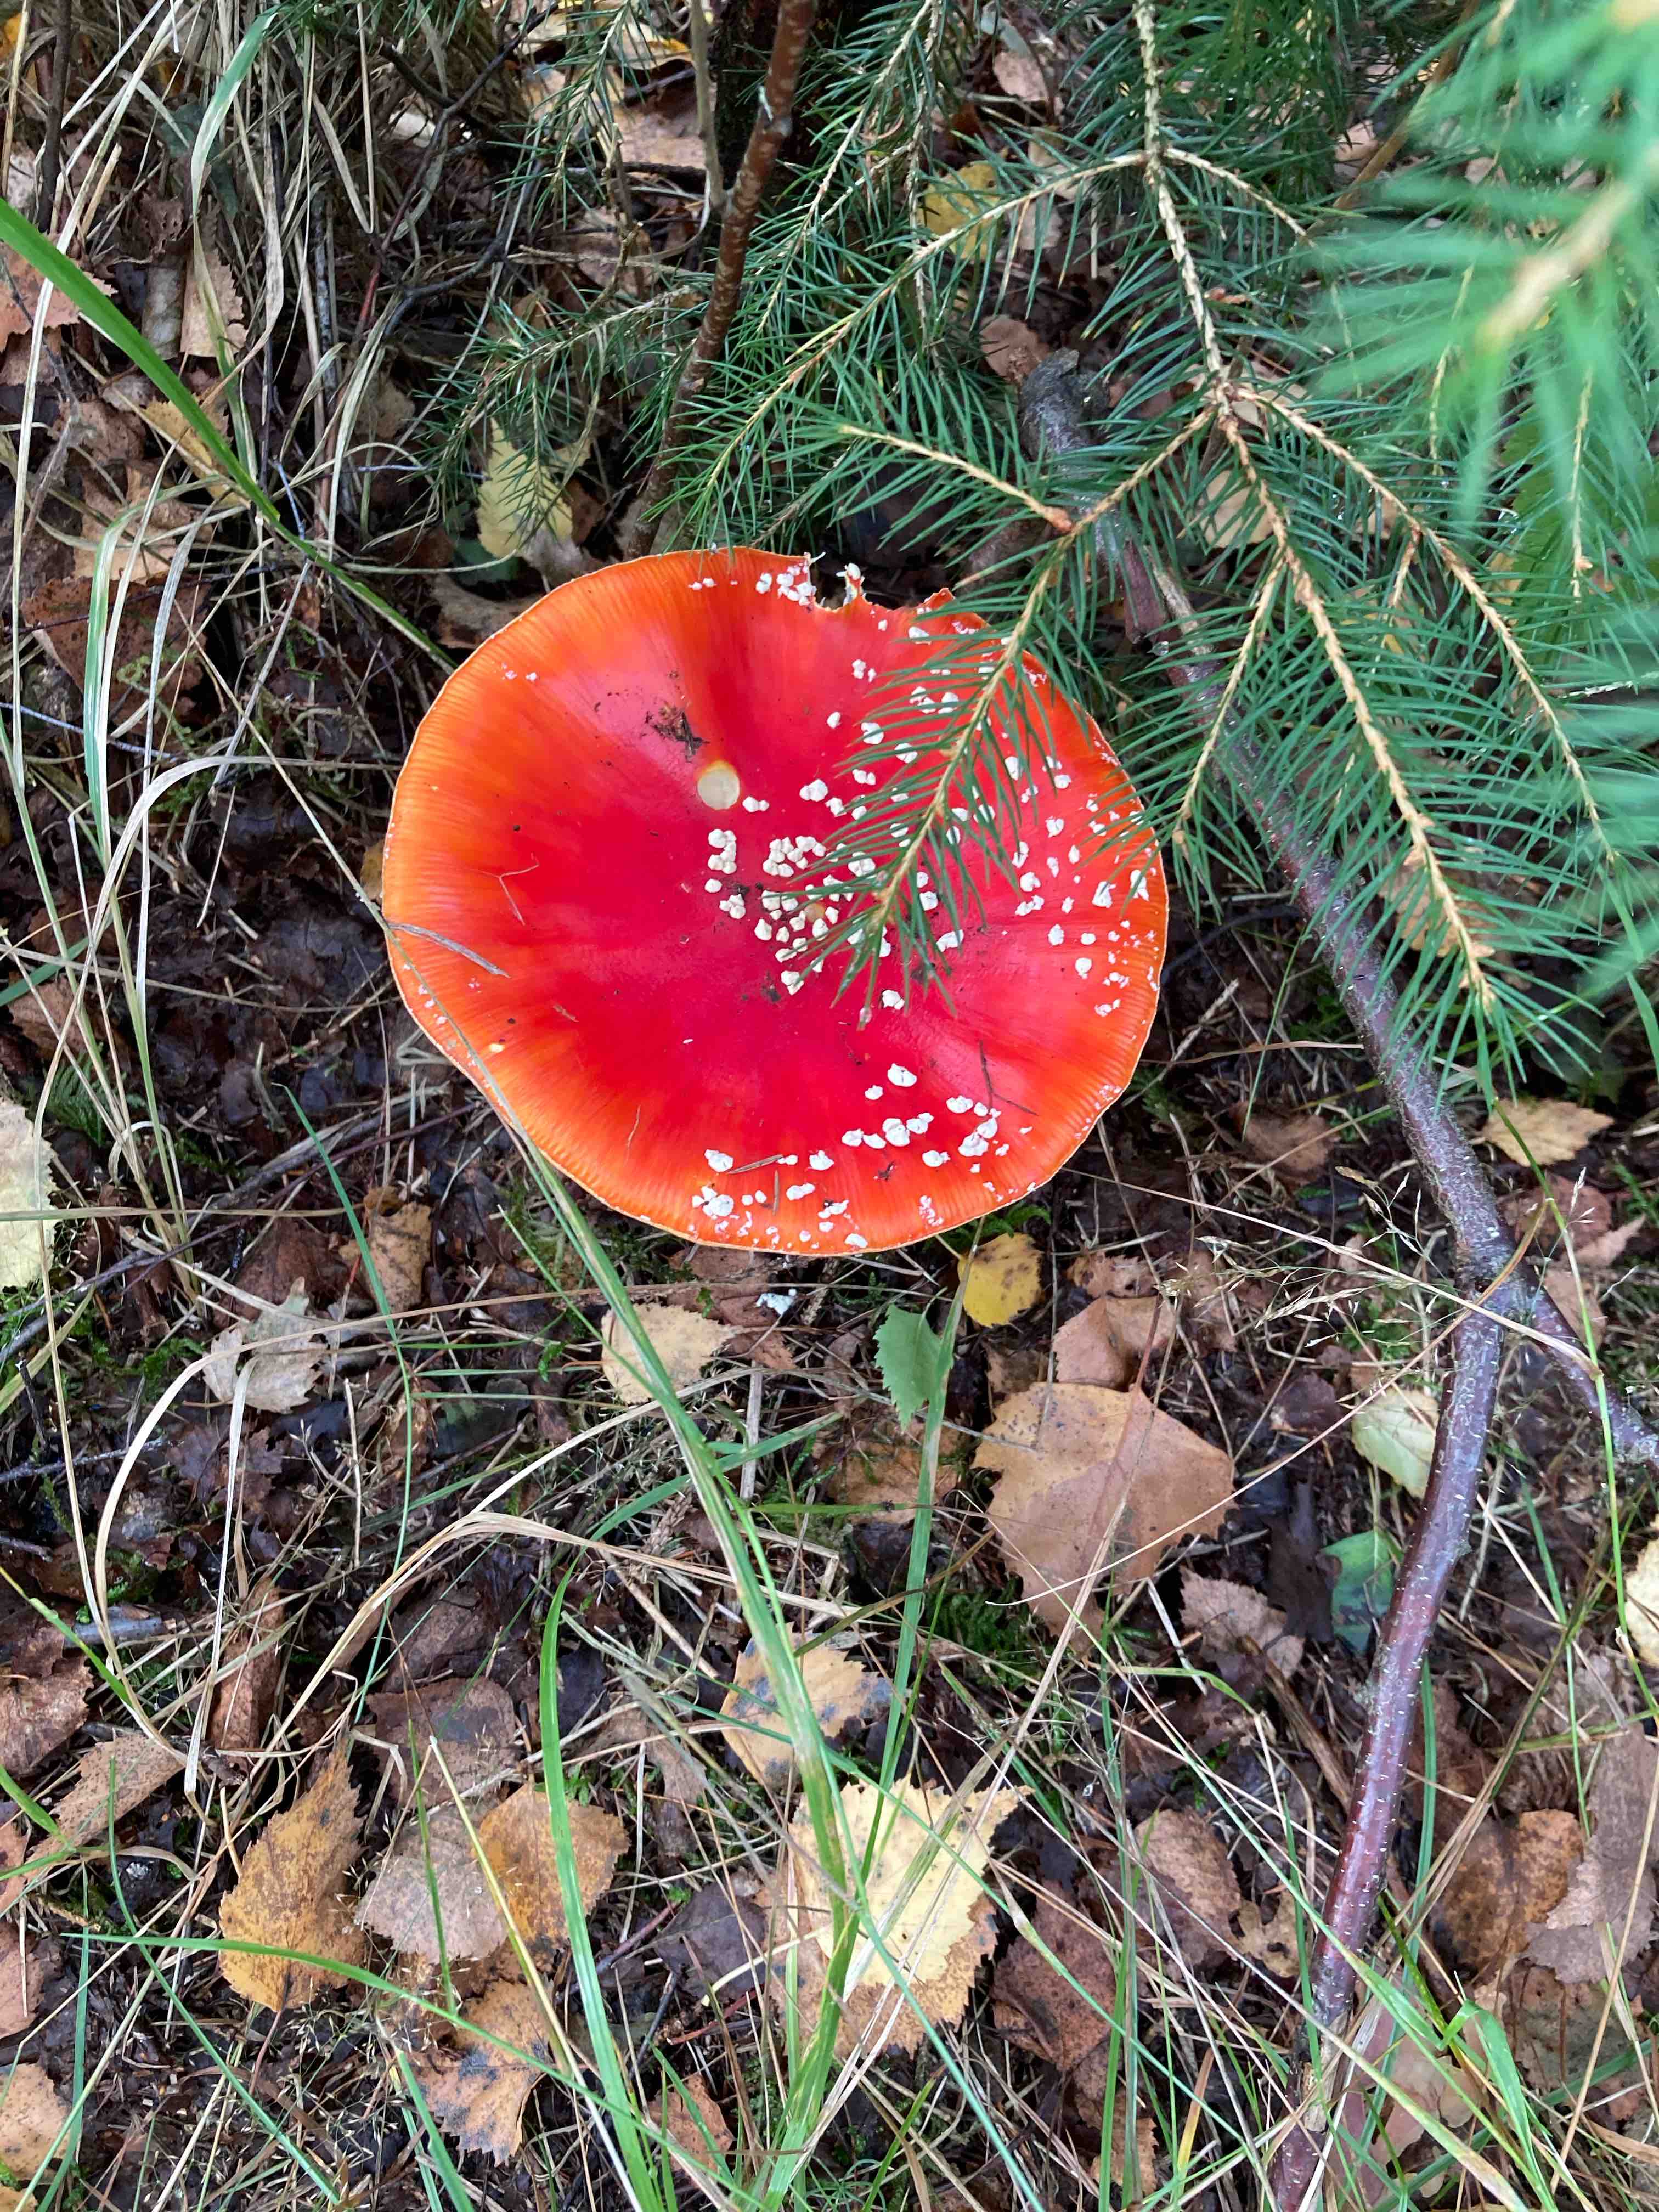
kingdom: Fungi
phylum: Basidiomycota
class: Agaricomycetes
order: Agaricales
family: Amanitaceae
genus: Amanita
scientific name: Amanita muscaria
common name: rød fluesvamp
